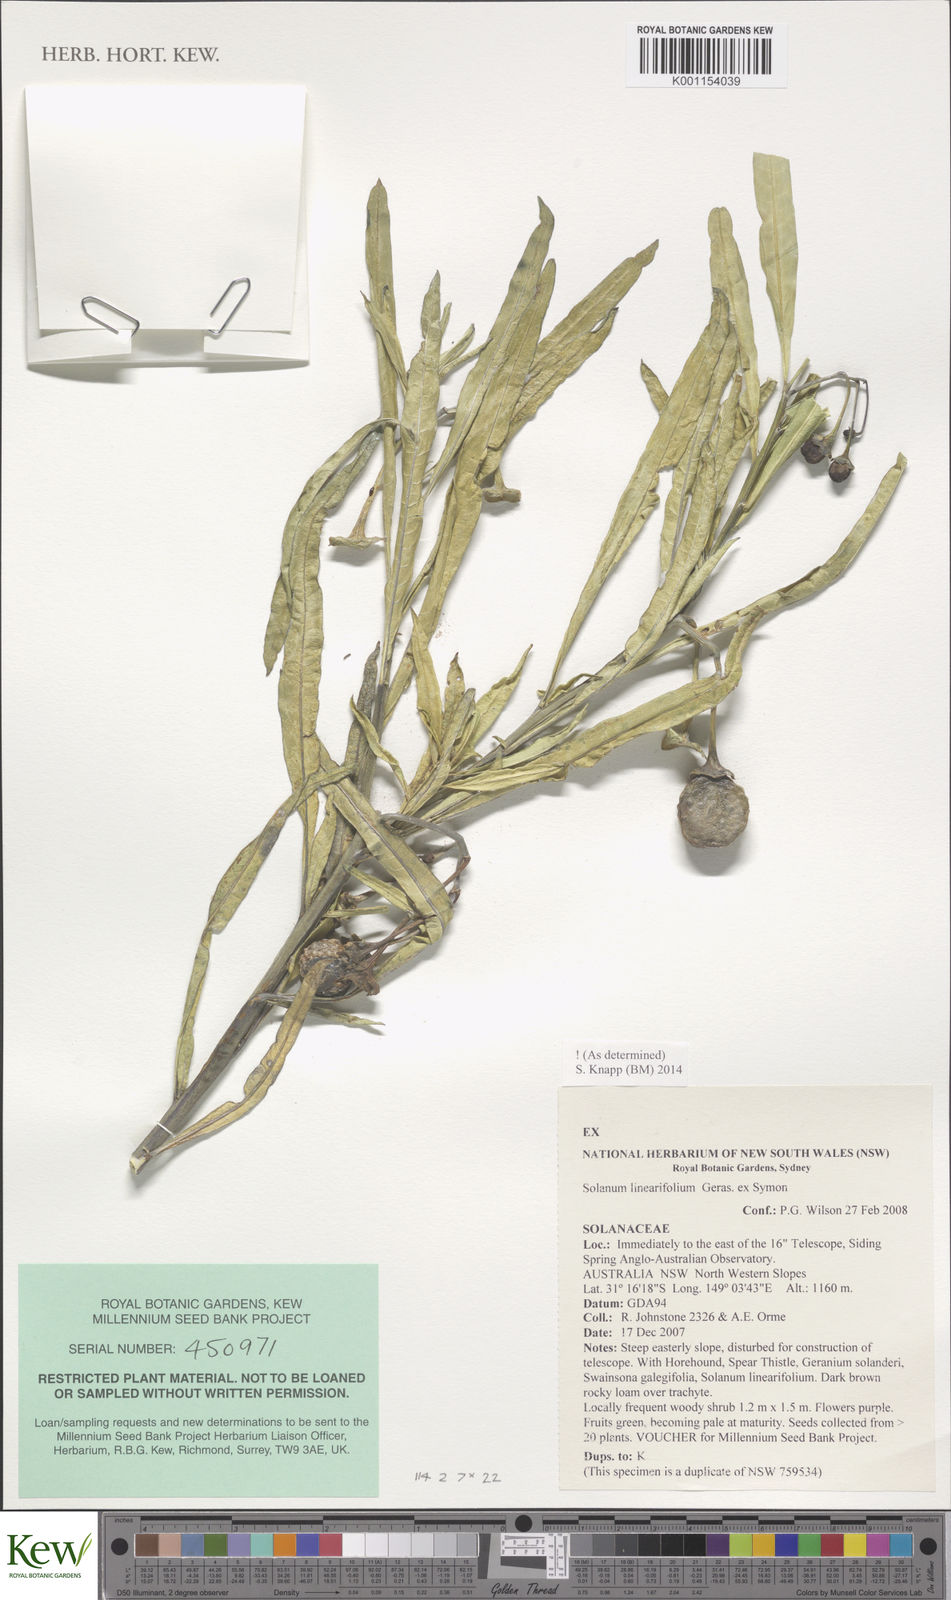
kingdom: Plantae
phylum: Tracheophyta
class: Magnoliopsida
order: Solanales
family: Solanaceae
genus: Solanum
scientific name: Solanum linearifolium
